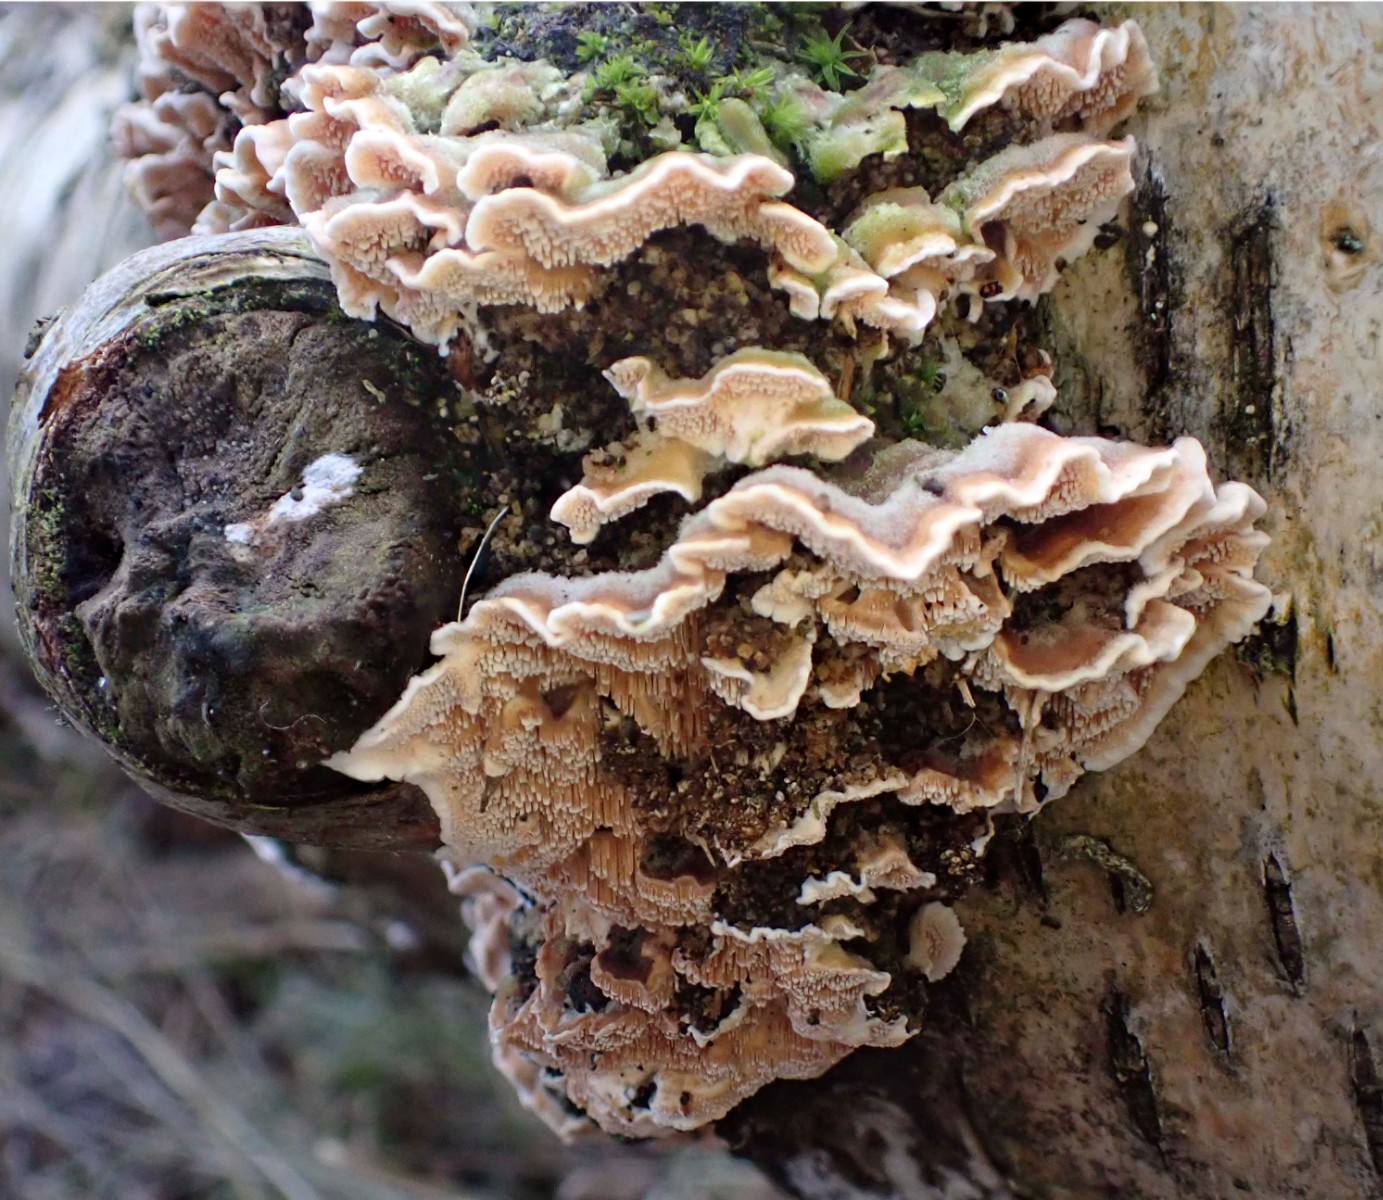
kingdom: Fungi
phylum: Basidiomycota
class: Agaricomycetes
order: Polyporales
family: Steccherinaceae
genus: Steccherinum
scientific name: Steccherinum bourdotii
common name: hat-skønpig
